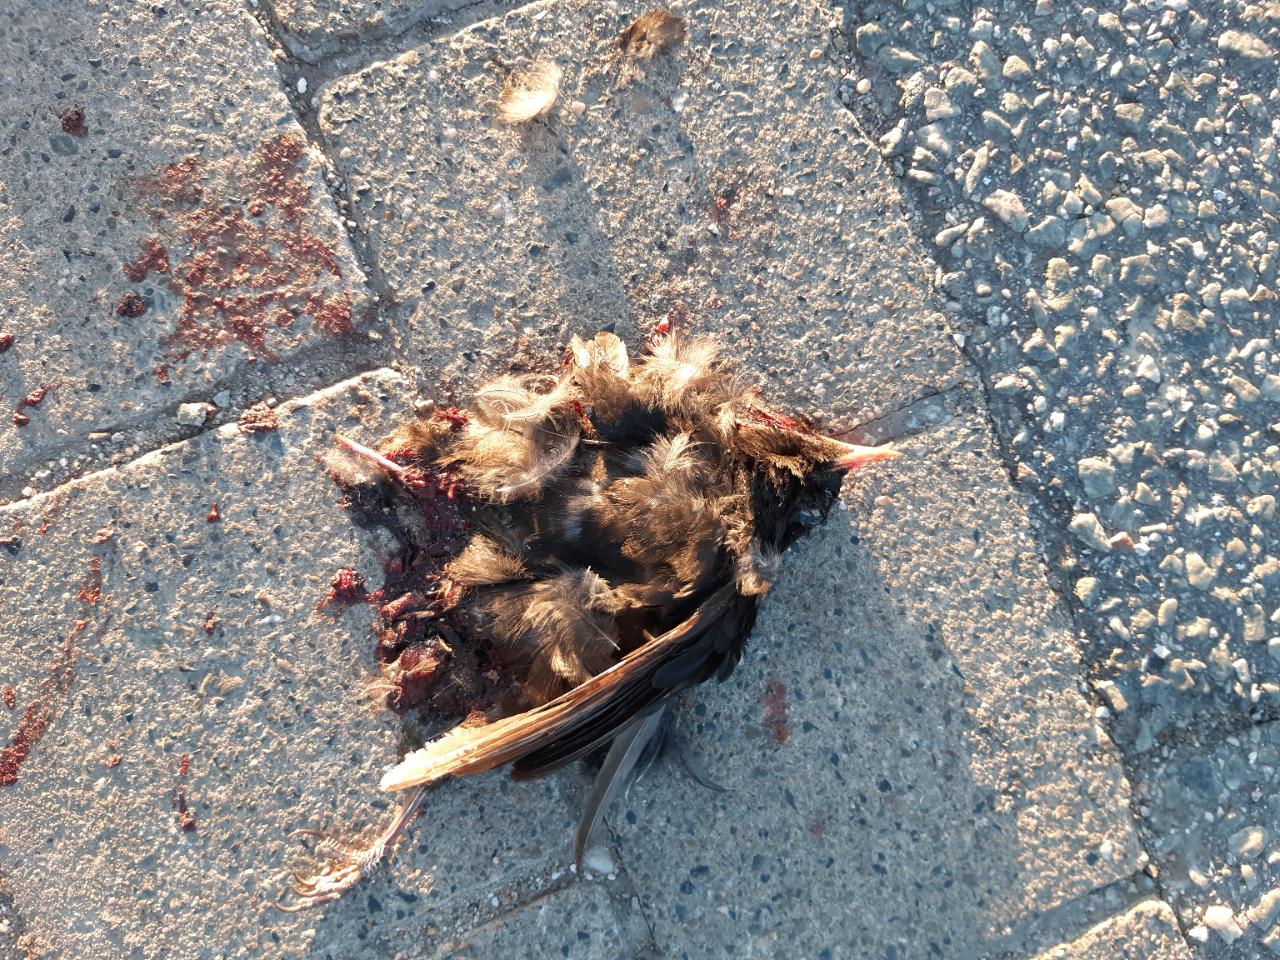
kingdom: Animalia
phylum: Chordata
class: Aves
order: Passeriformes
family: Turdidae
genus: Turdus
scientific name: Turdus merula
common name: Common blackbird
